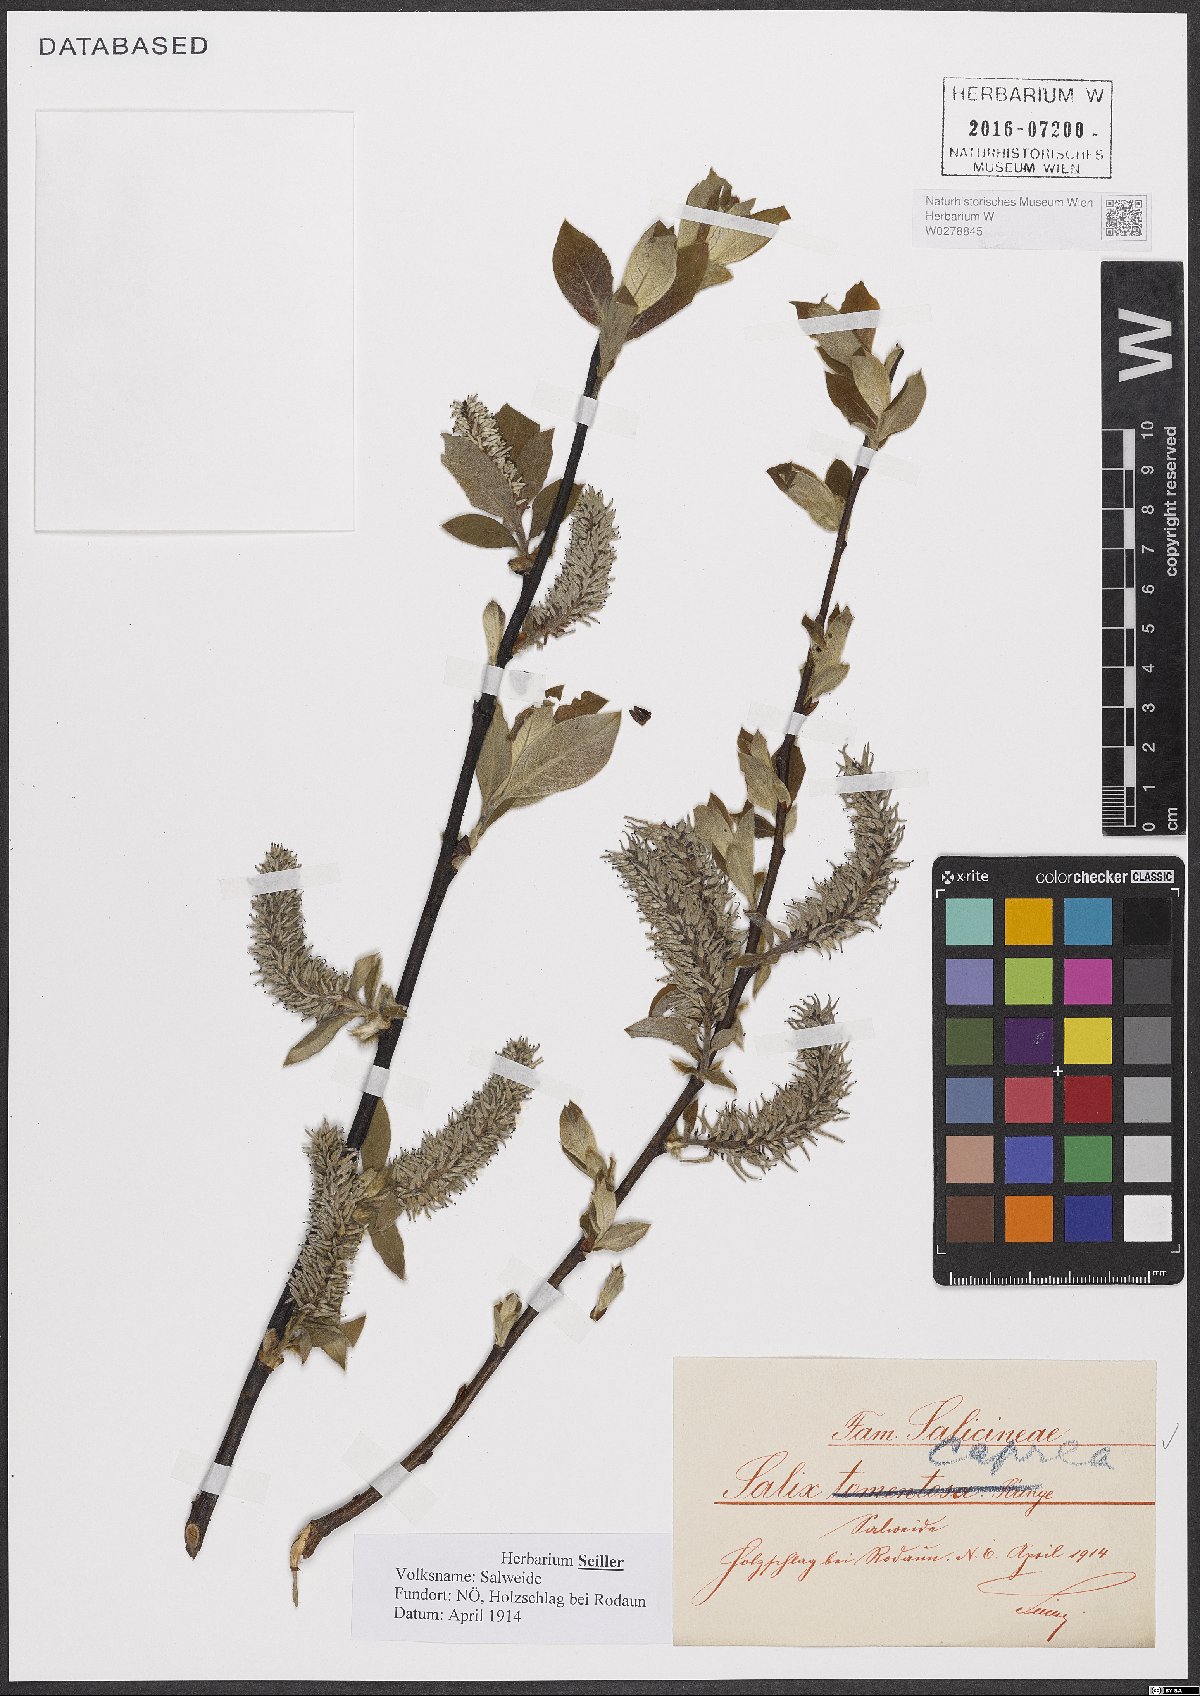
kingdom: Plantae
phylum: Tracheophyta
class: Magnoliopsida
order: Malpighiales
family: Salicaceae
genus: Salix
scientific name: Salix caprea
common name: Goat willow
